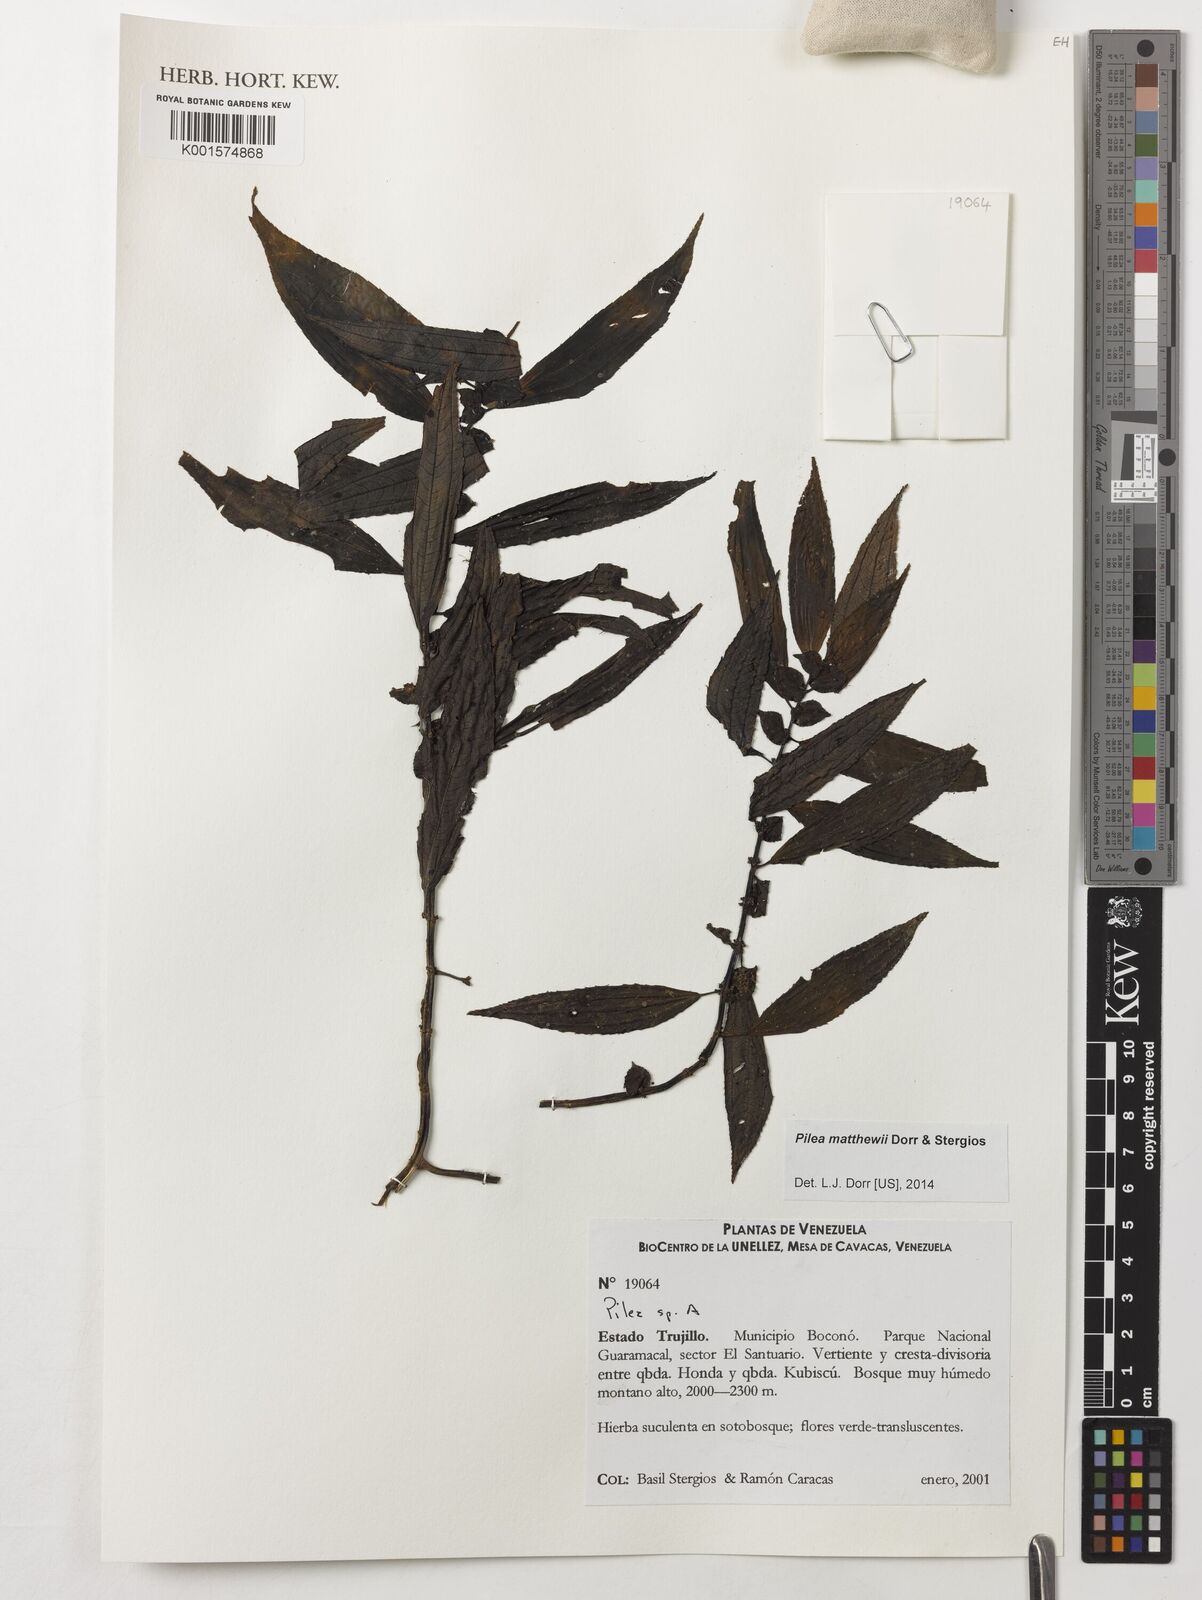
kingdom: Plantae
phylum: Tracheophyta
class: Magnoliopsida
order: Rosales
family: Urticaceae
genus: Pilea
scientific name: Pilea matthewii
